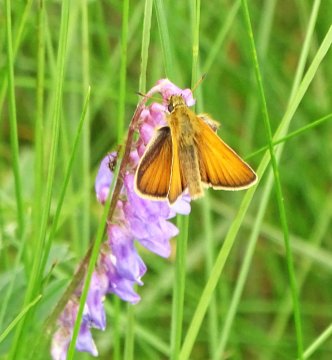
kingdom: Animalia
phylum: Arthropoda
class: Insecta
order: Lepidoptera
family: Hesperiidae
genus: Thymelicus
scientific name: Thymelicus lineola
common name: European Skipper
